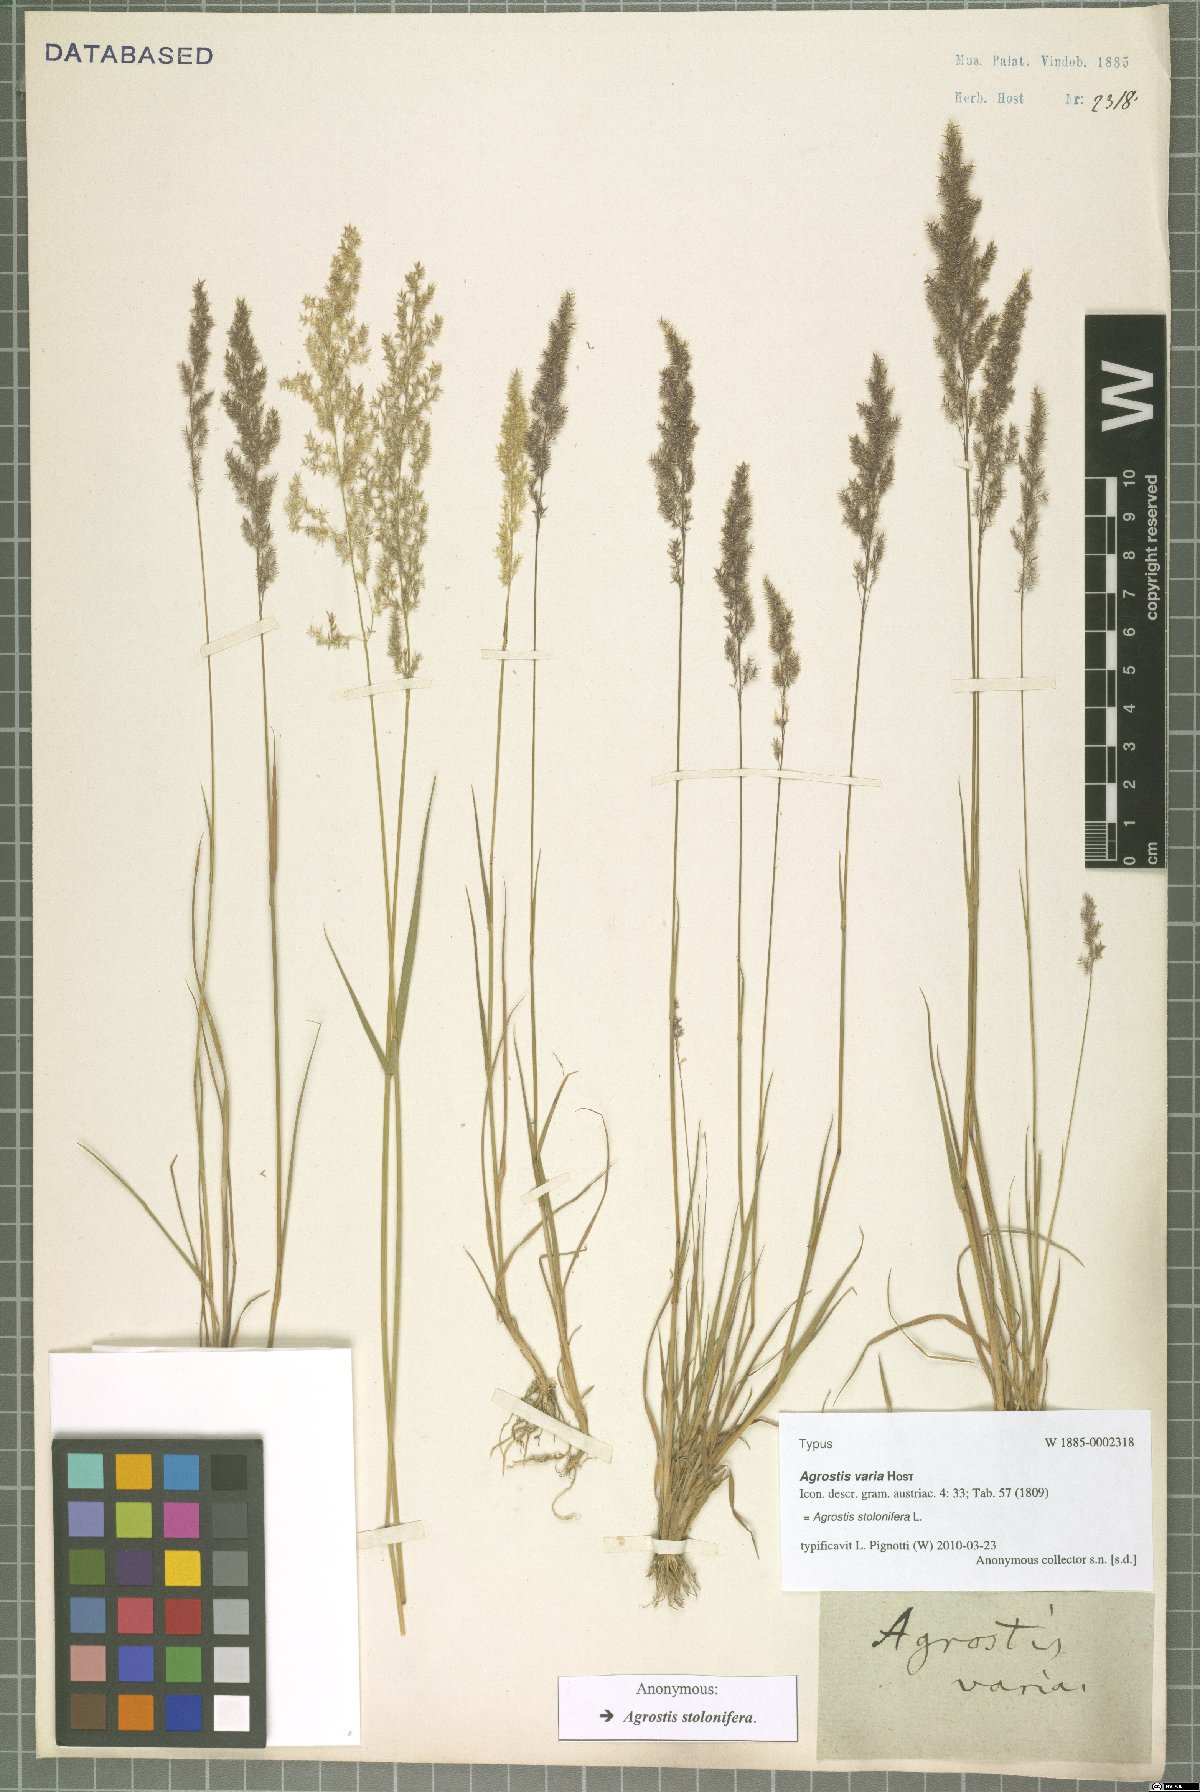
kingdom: Plantae
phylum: Tracheophyta
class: Liliopsida
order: Poales
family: Poaceae
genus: Agrostis
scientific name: Agrostis stolonifera
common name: Creeping bentgrass
